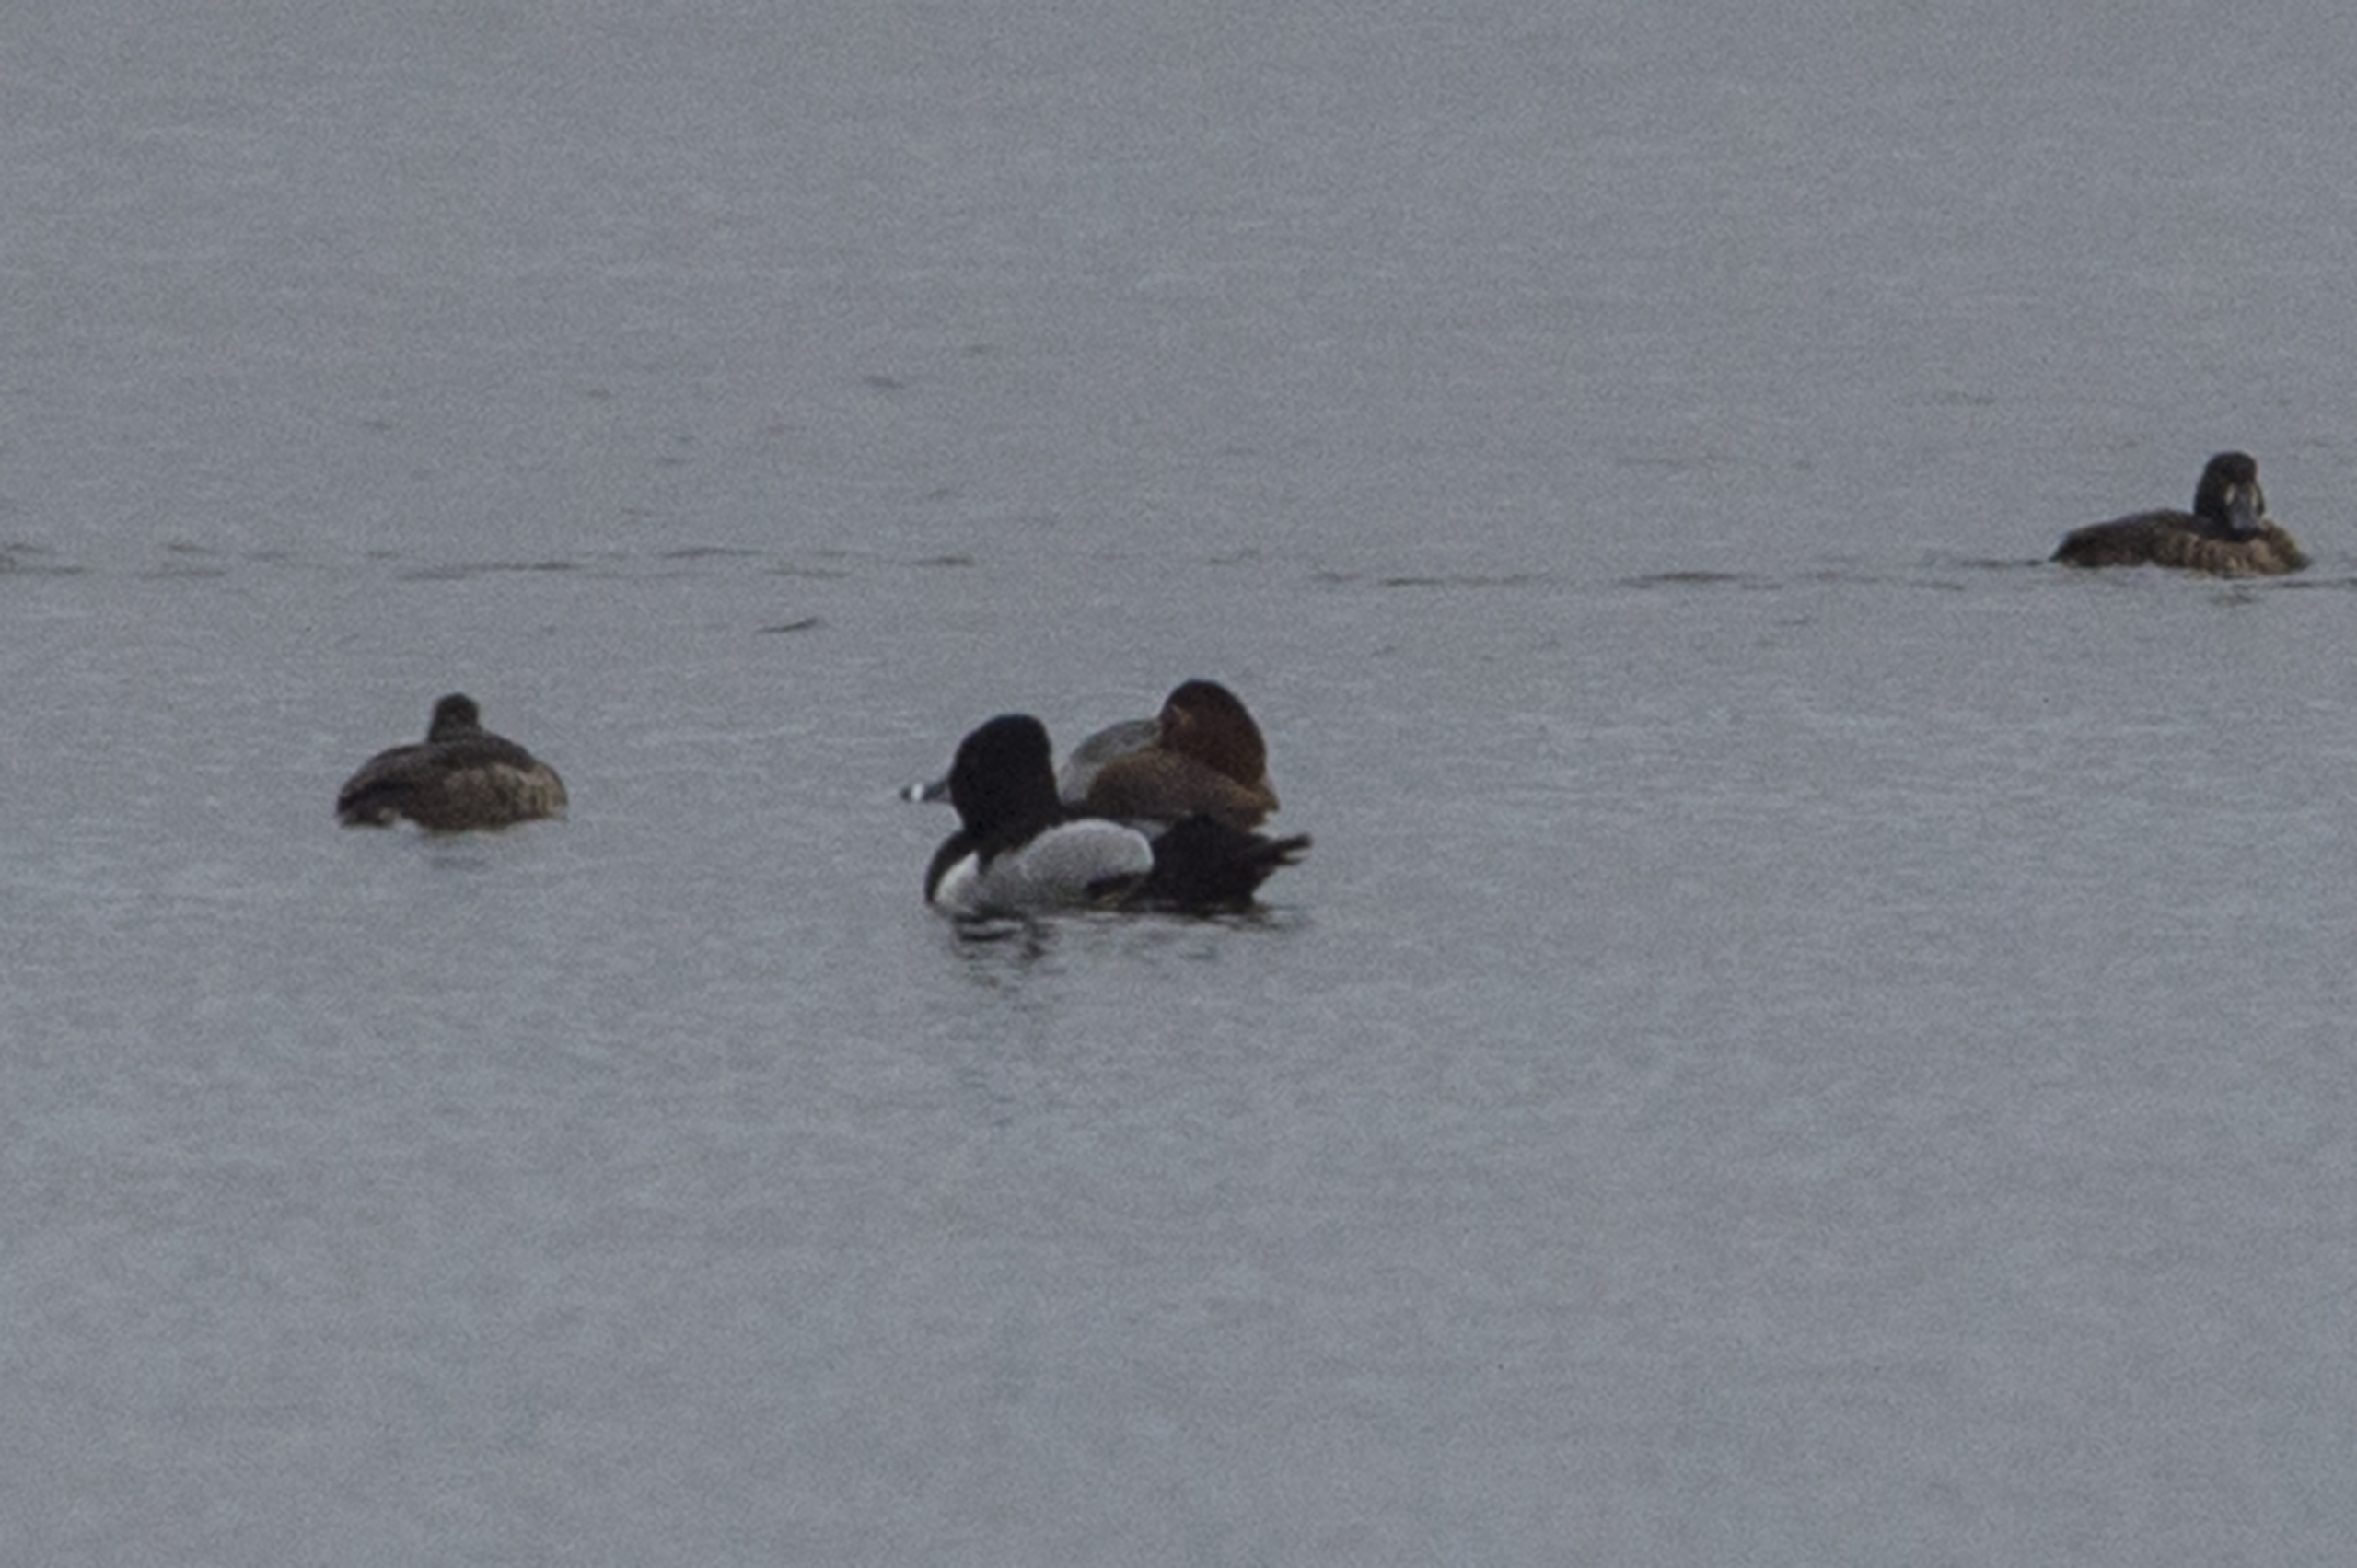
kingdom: Animalia
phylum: Chordata
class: Aves
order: Anseriformes
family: Anatidae
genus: Aythya
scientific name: Aythya collaris
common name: Halsbåndstroldand
